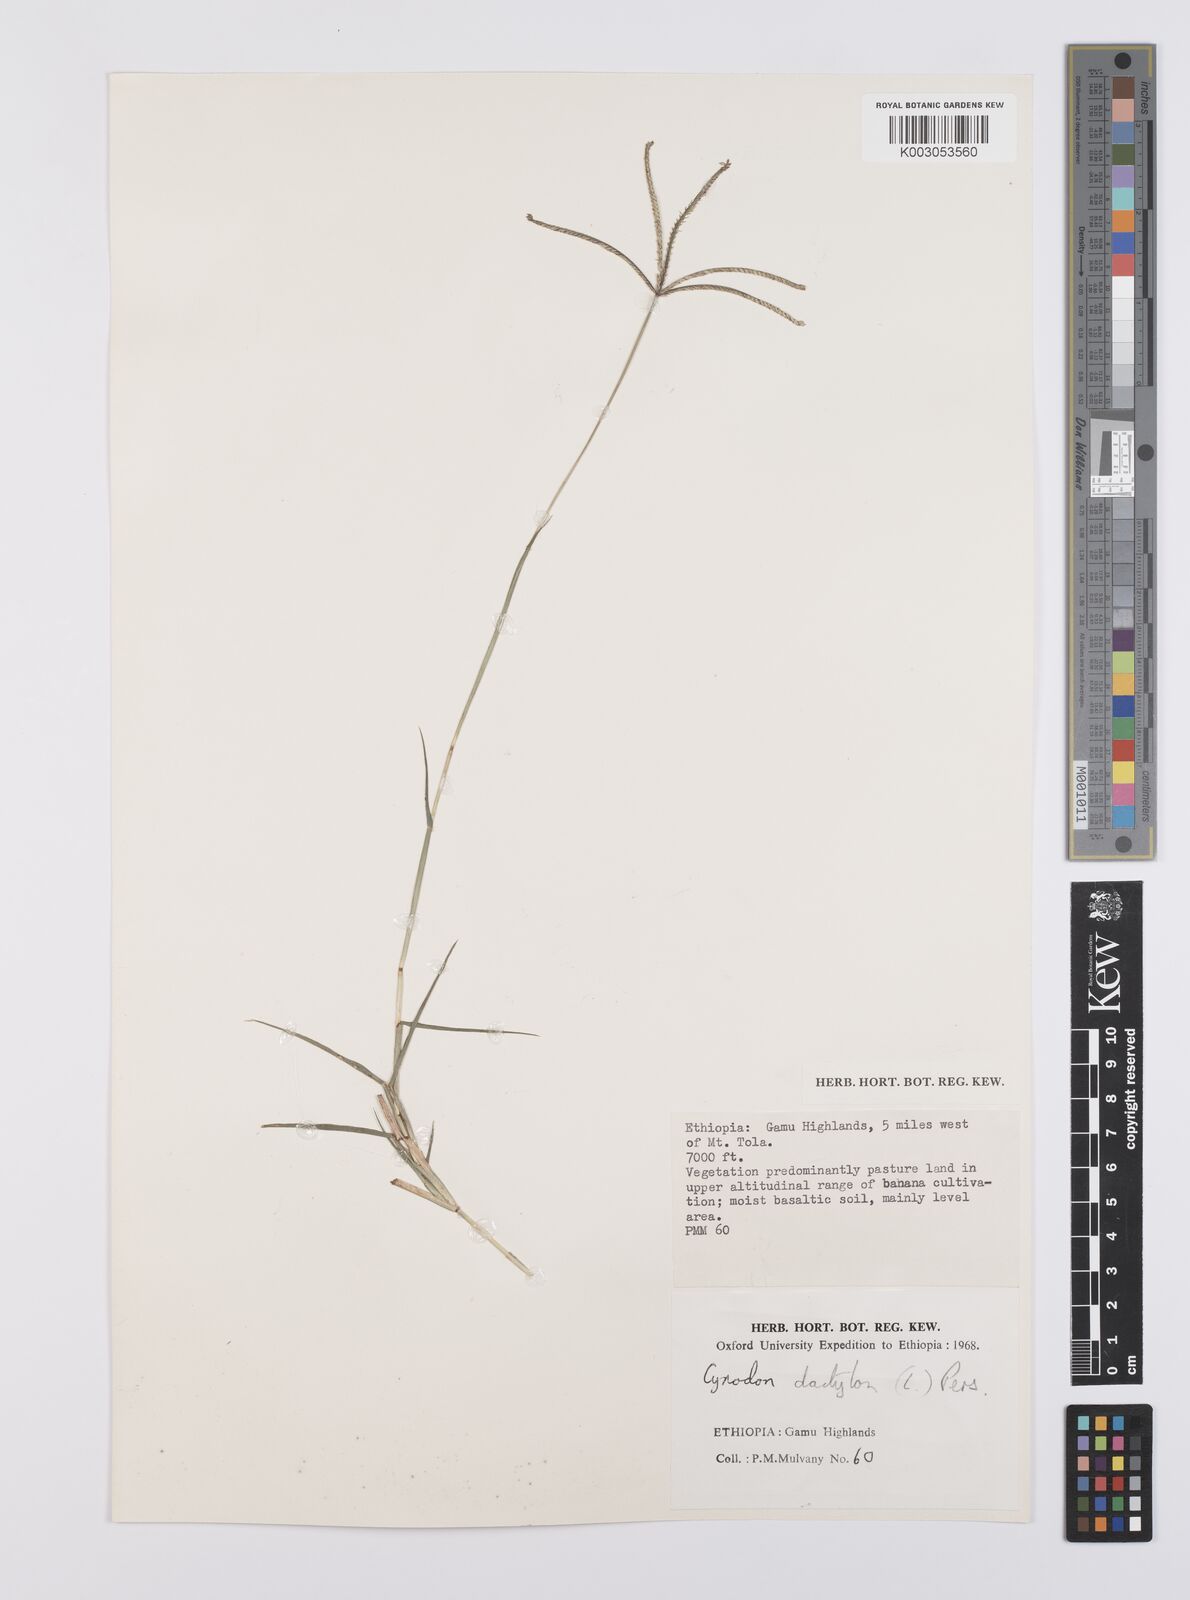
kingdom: Plantae
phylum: Tracheophyta
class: Liliopsida
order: Poales
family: Poaceae
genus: Cynodon
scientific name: Cynodon dactylon
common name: Bermuda grass
